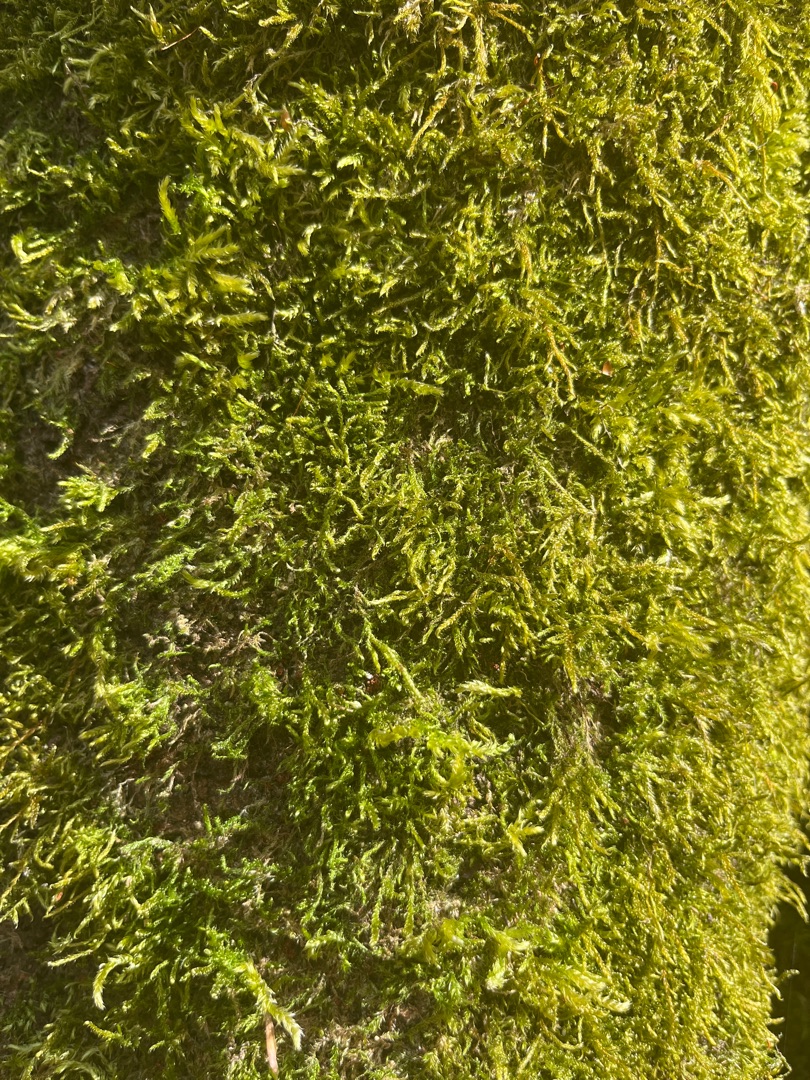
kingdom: Plantae
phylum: Bryophyta
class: Bryopsida
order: Hypnales
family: Hypnaceae
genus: Hypnum
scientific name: Hypnum
